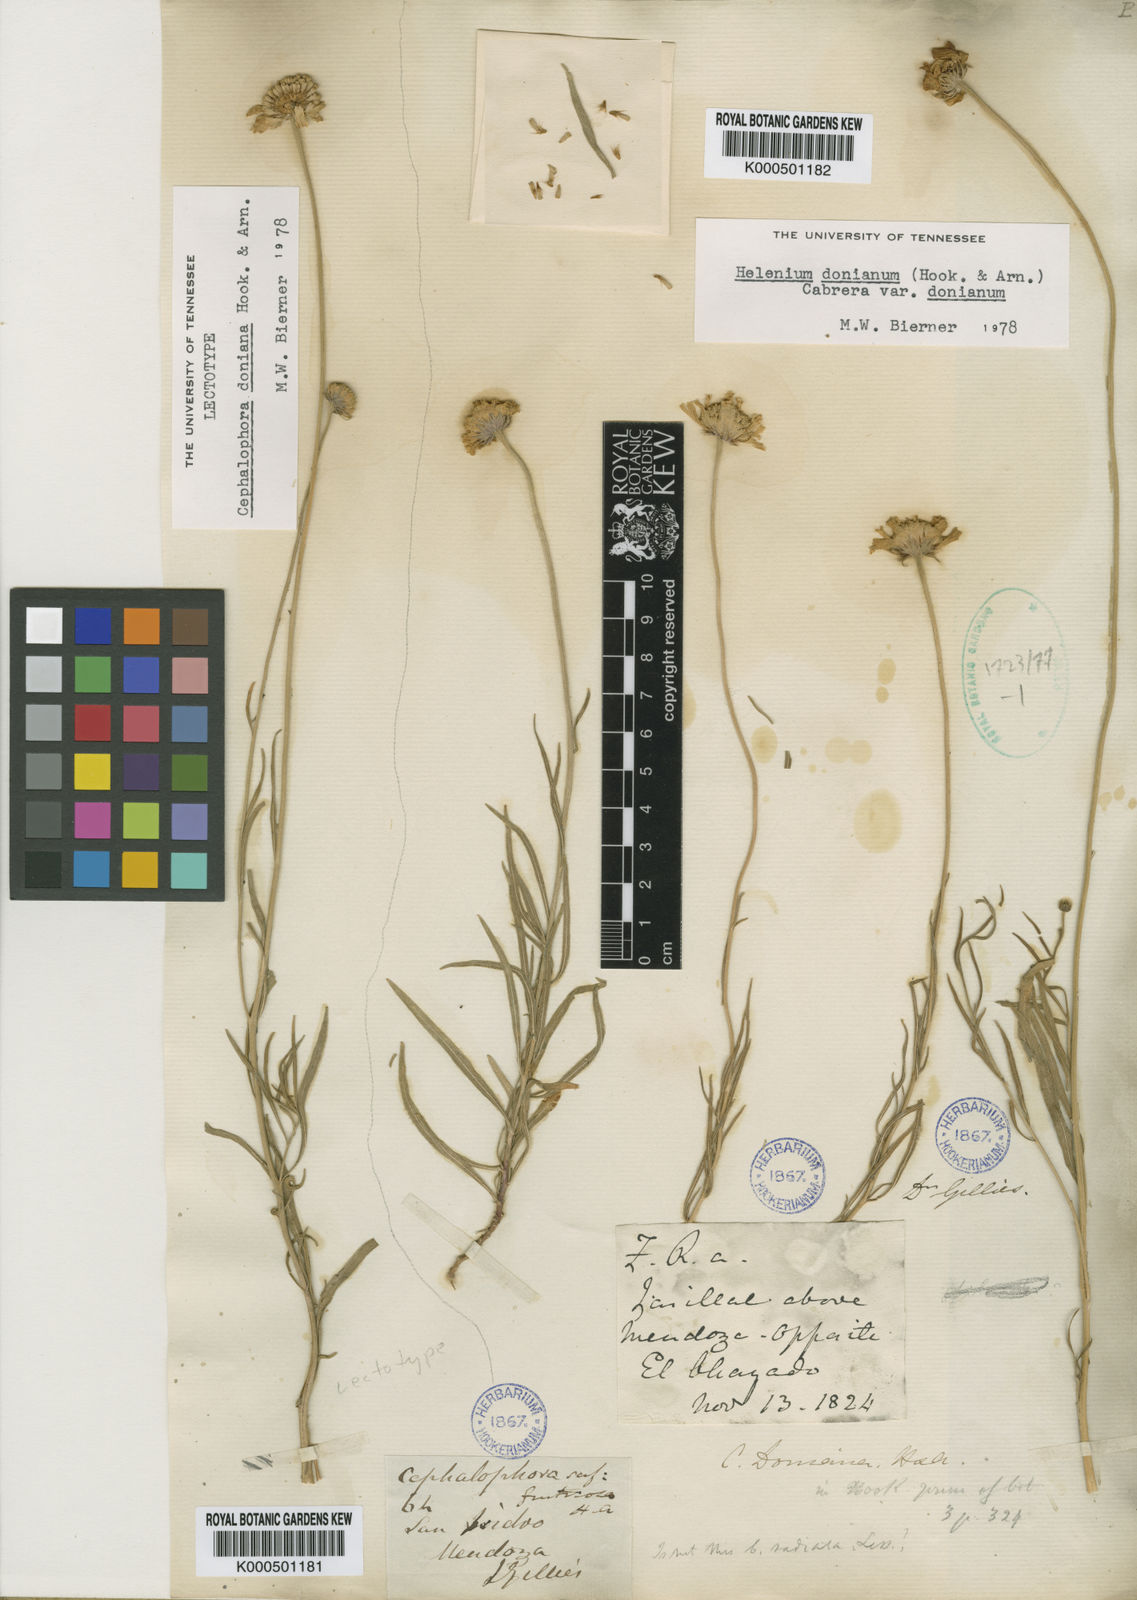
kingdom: Plantae
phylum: Tracheophyta
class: Magnoliopsida
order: Asterales
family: Asteraceae
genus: Helenium
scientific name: Helenium donianum
